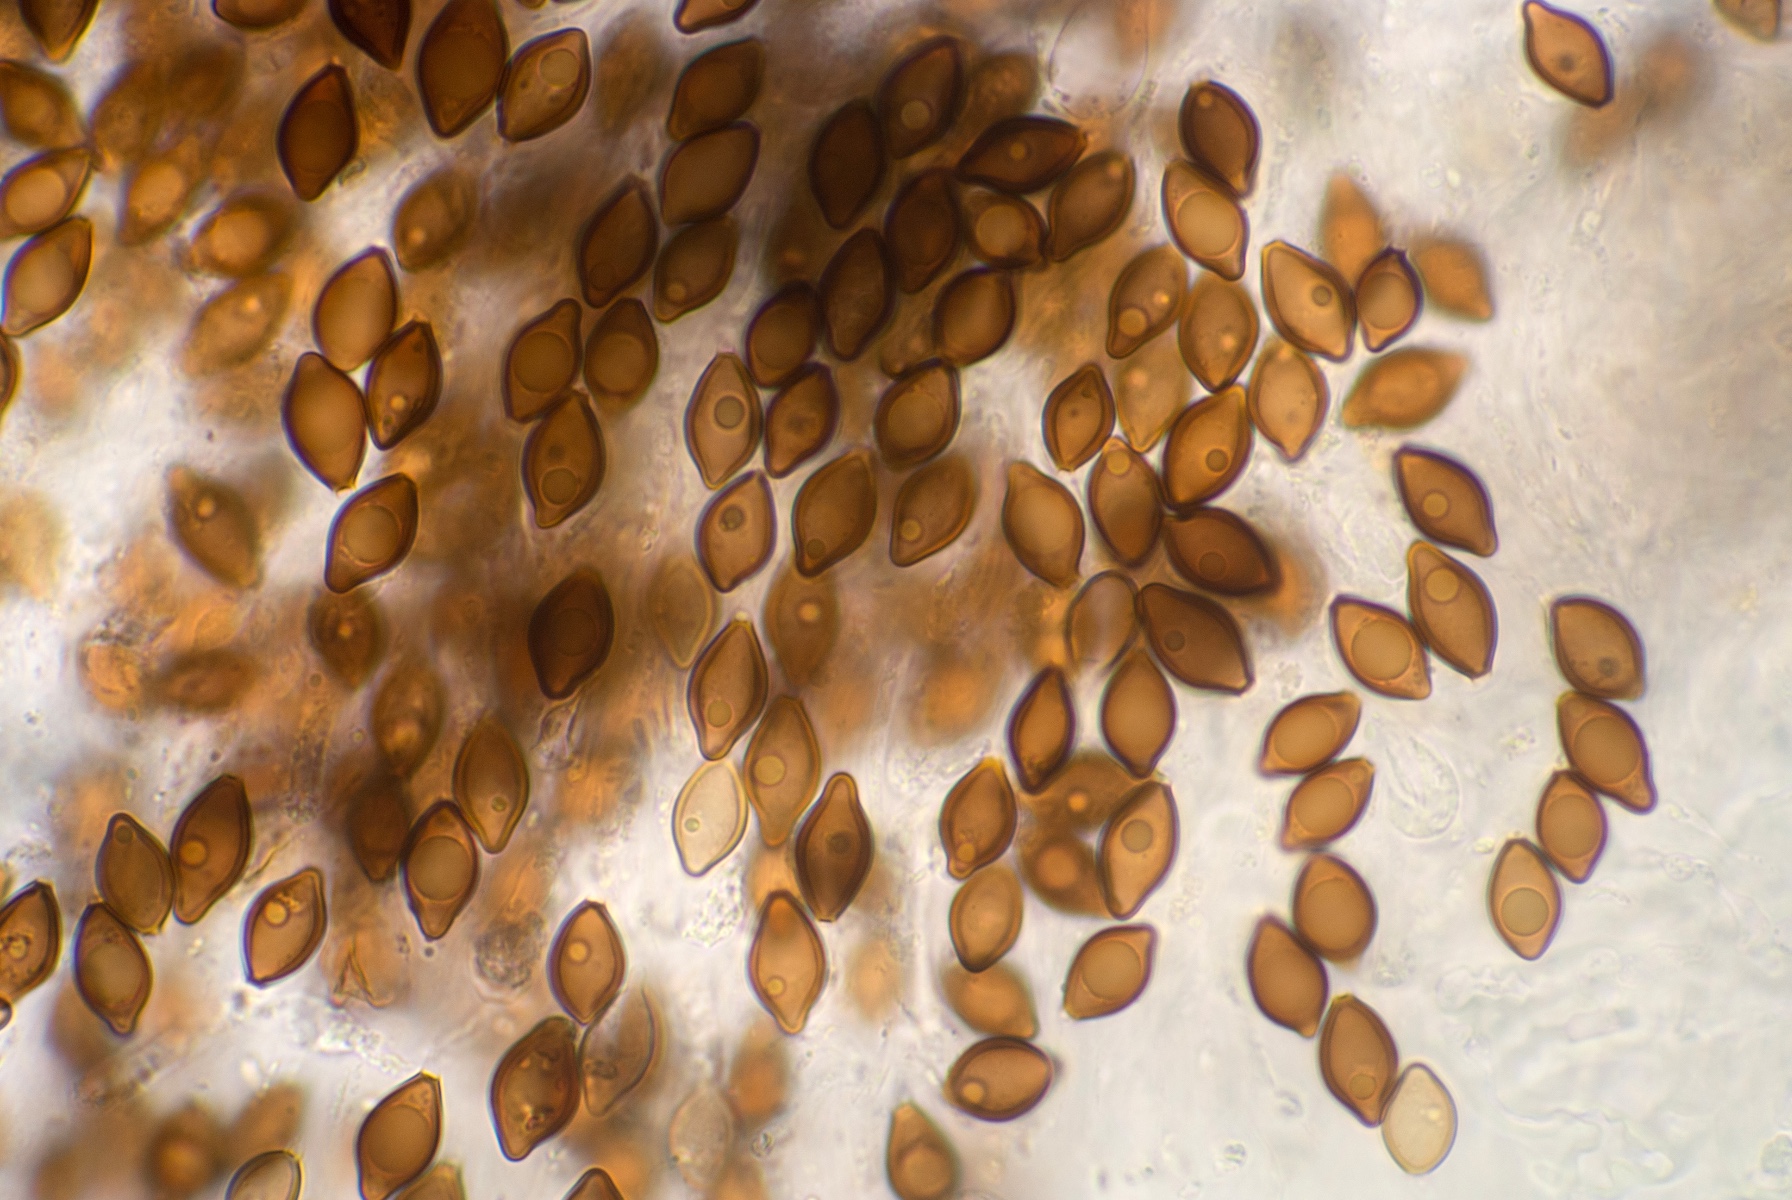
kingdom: Fungi
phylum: Basidiomycota
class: Agaricomycetes
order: Boletales
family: Paxillaceae
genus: Melanogaster
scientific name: Melanogaster ambiguus
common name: lille slimtrøffel
